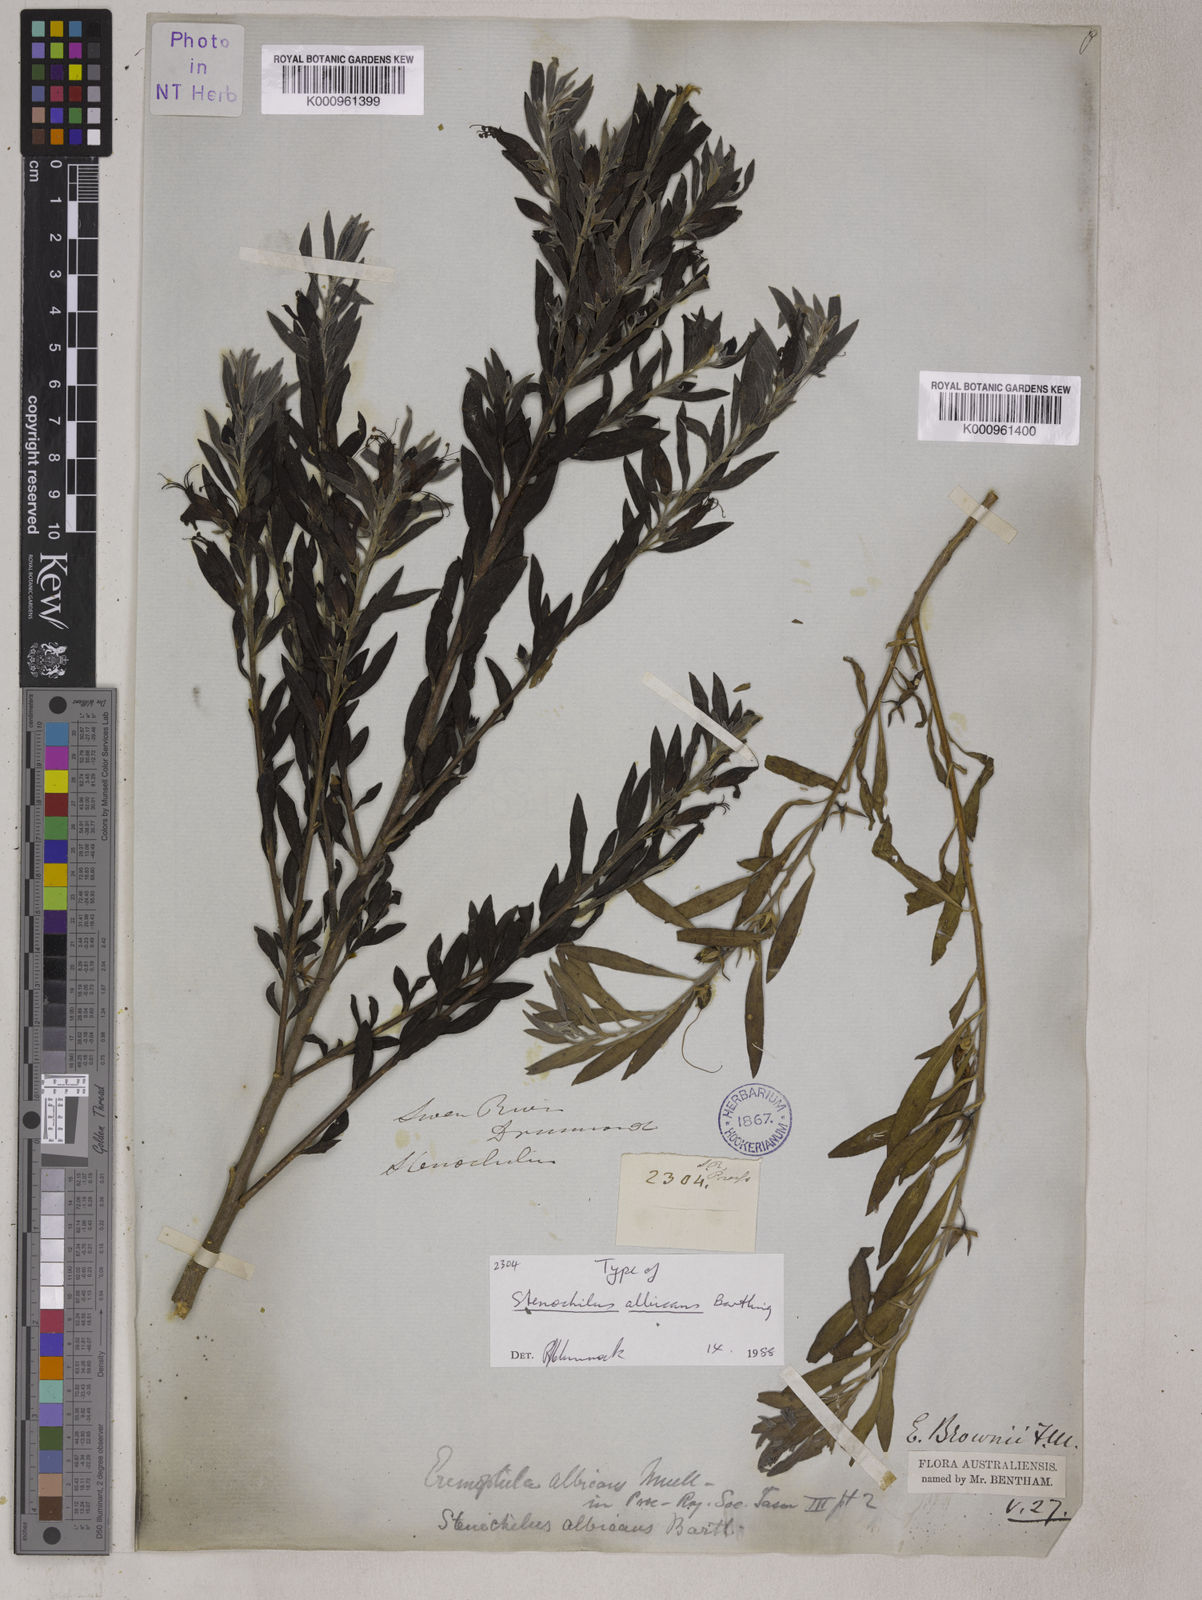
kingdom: Plantae
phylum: Tracheophyta
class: Magnoliopsida
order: Lamiales
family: Scrophulariaceae
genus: Eremophila
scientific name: Eremophila glabra
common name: Black-fuchsia
